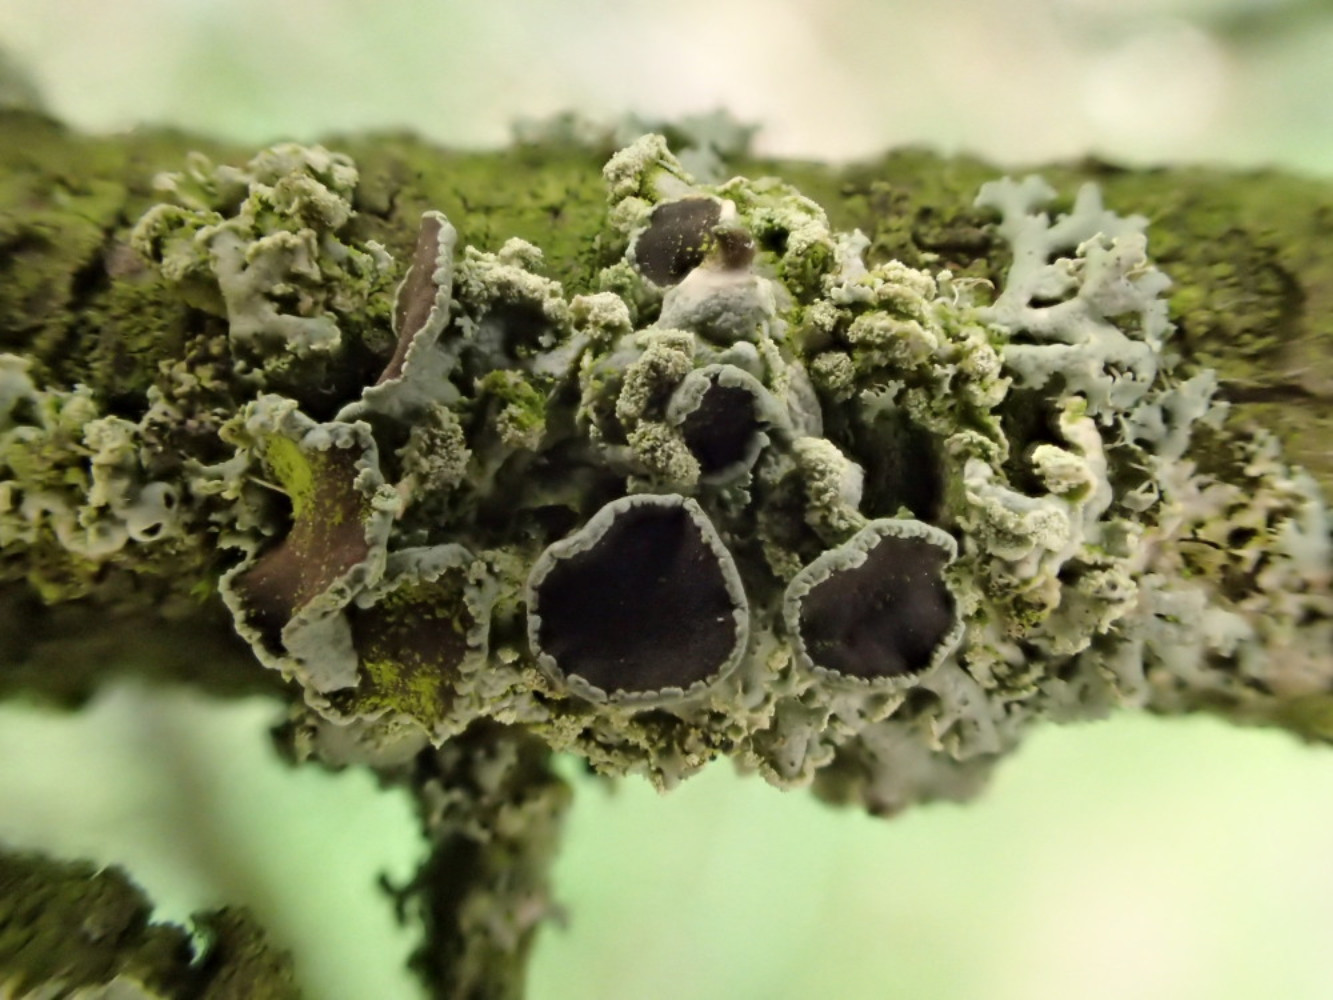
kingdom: Fungi
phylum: Ascomycota
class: Lecanoromycetes
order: Caliciales
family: Physciaceae
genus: Physcia
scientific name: Physcia tenella
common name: spæd rosetlav
